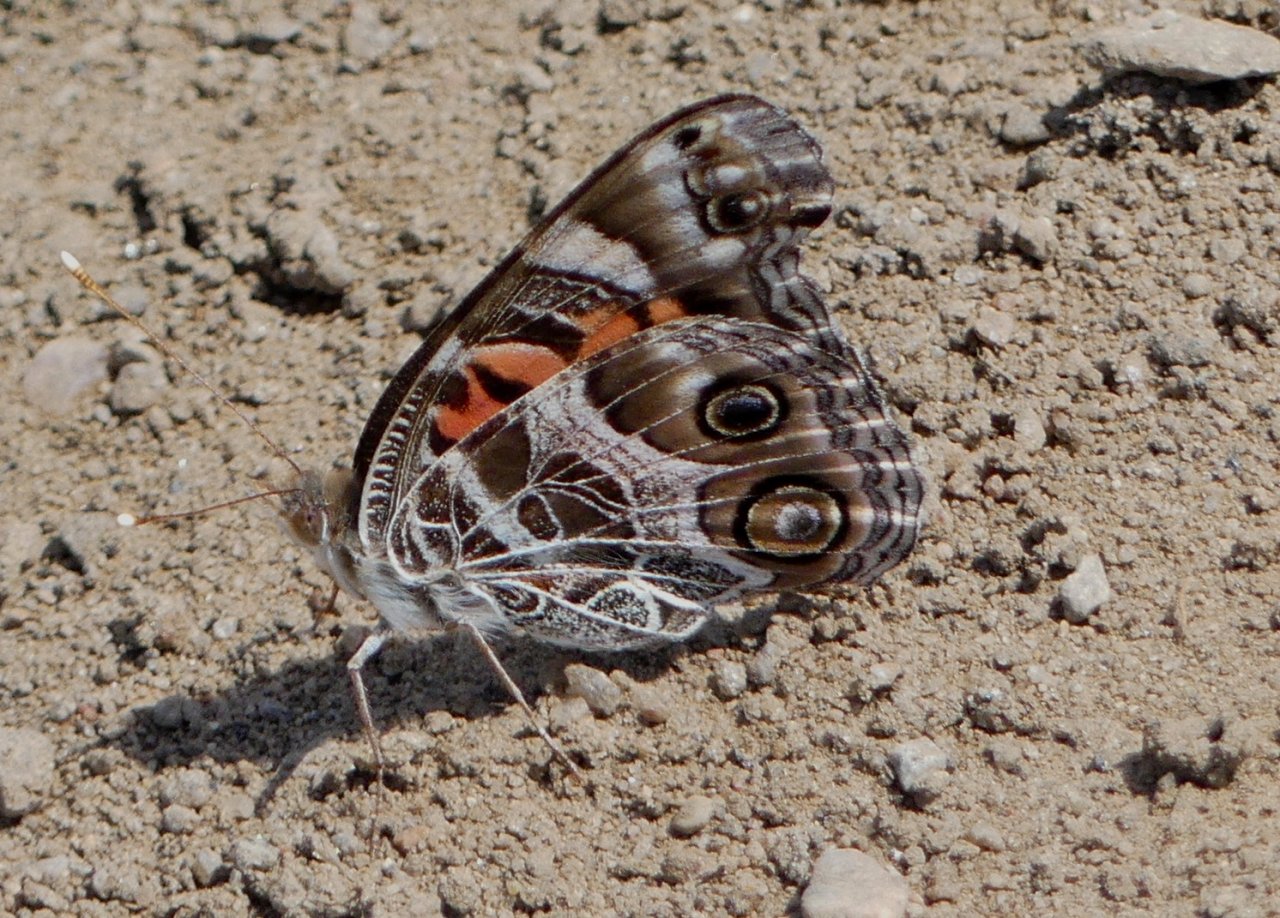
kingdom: Animalia
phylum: Arthropoda
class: Insecta
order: Lepidoptera
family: Nymphalidae
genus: Vanessa
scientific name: Vanessa virginiensis
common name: American Lady
